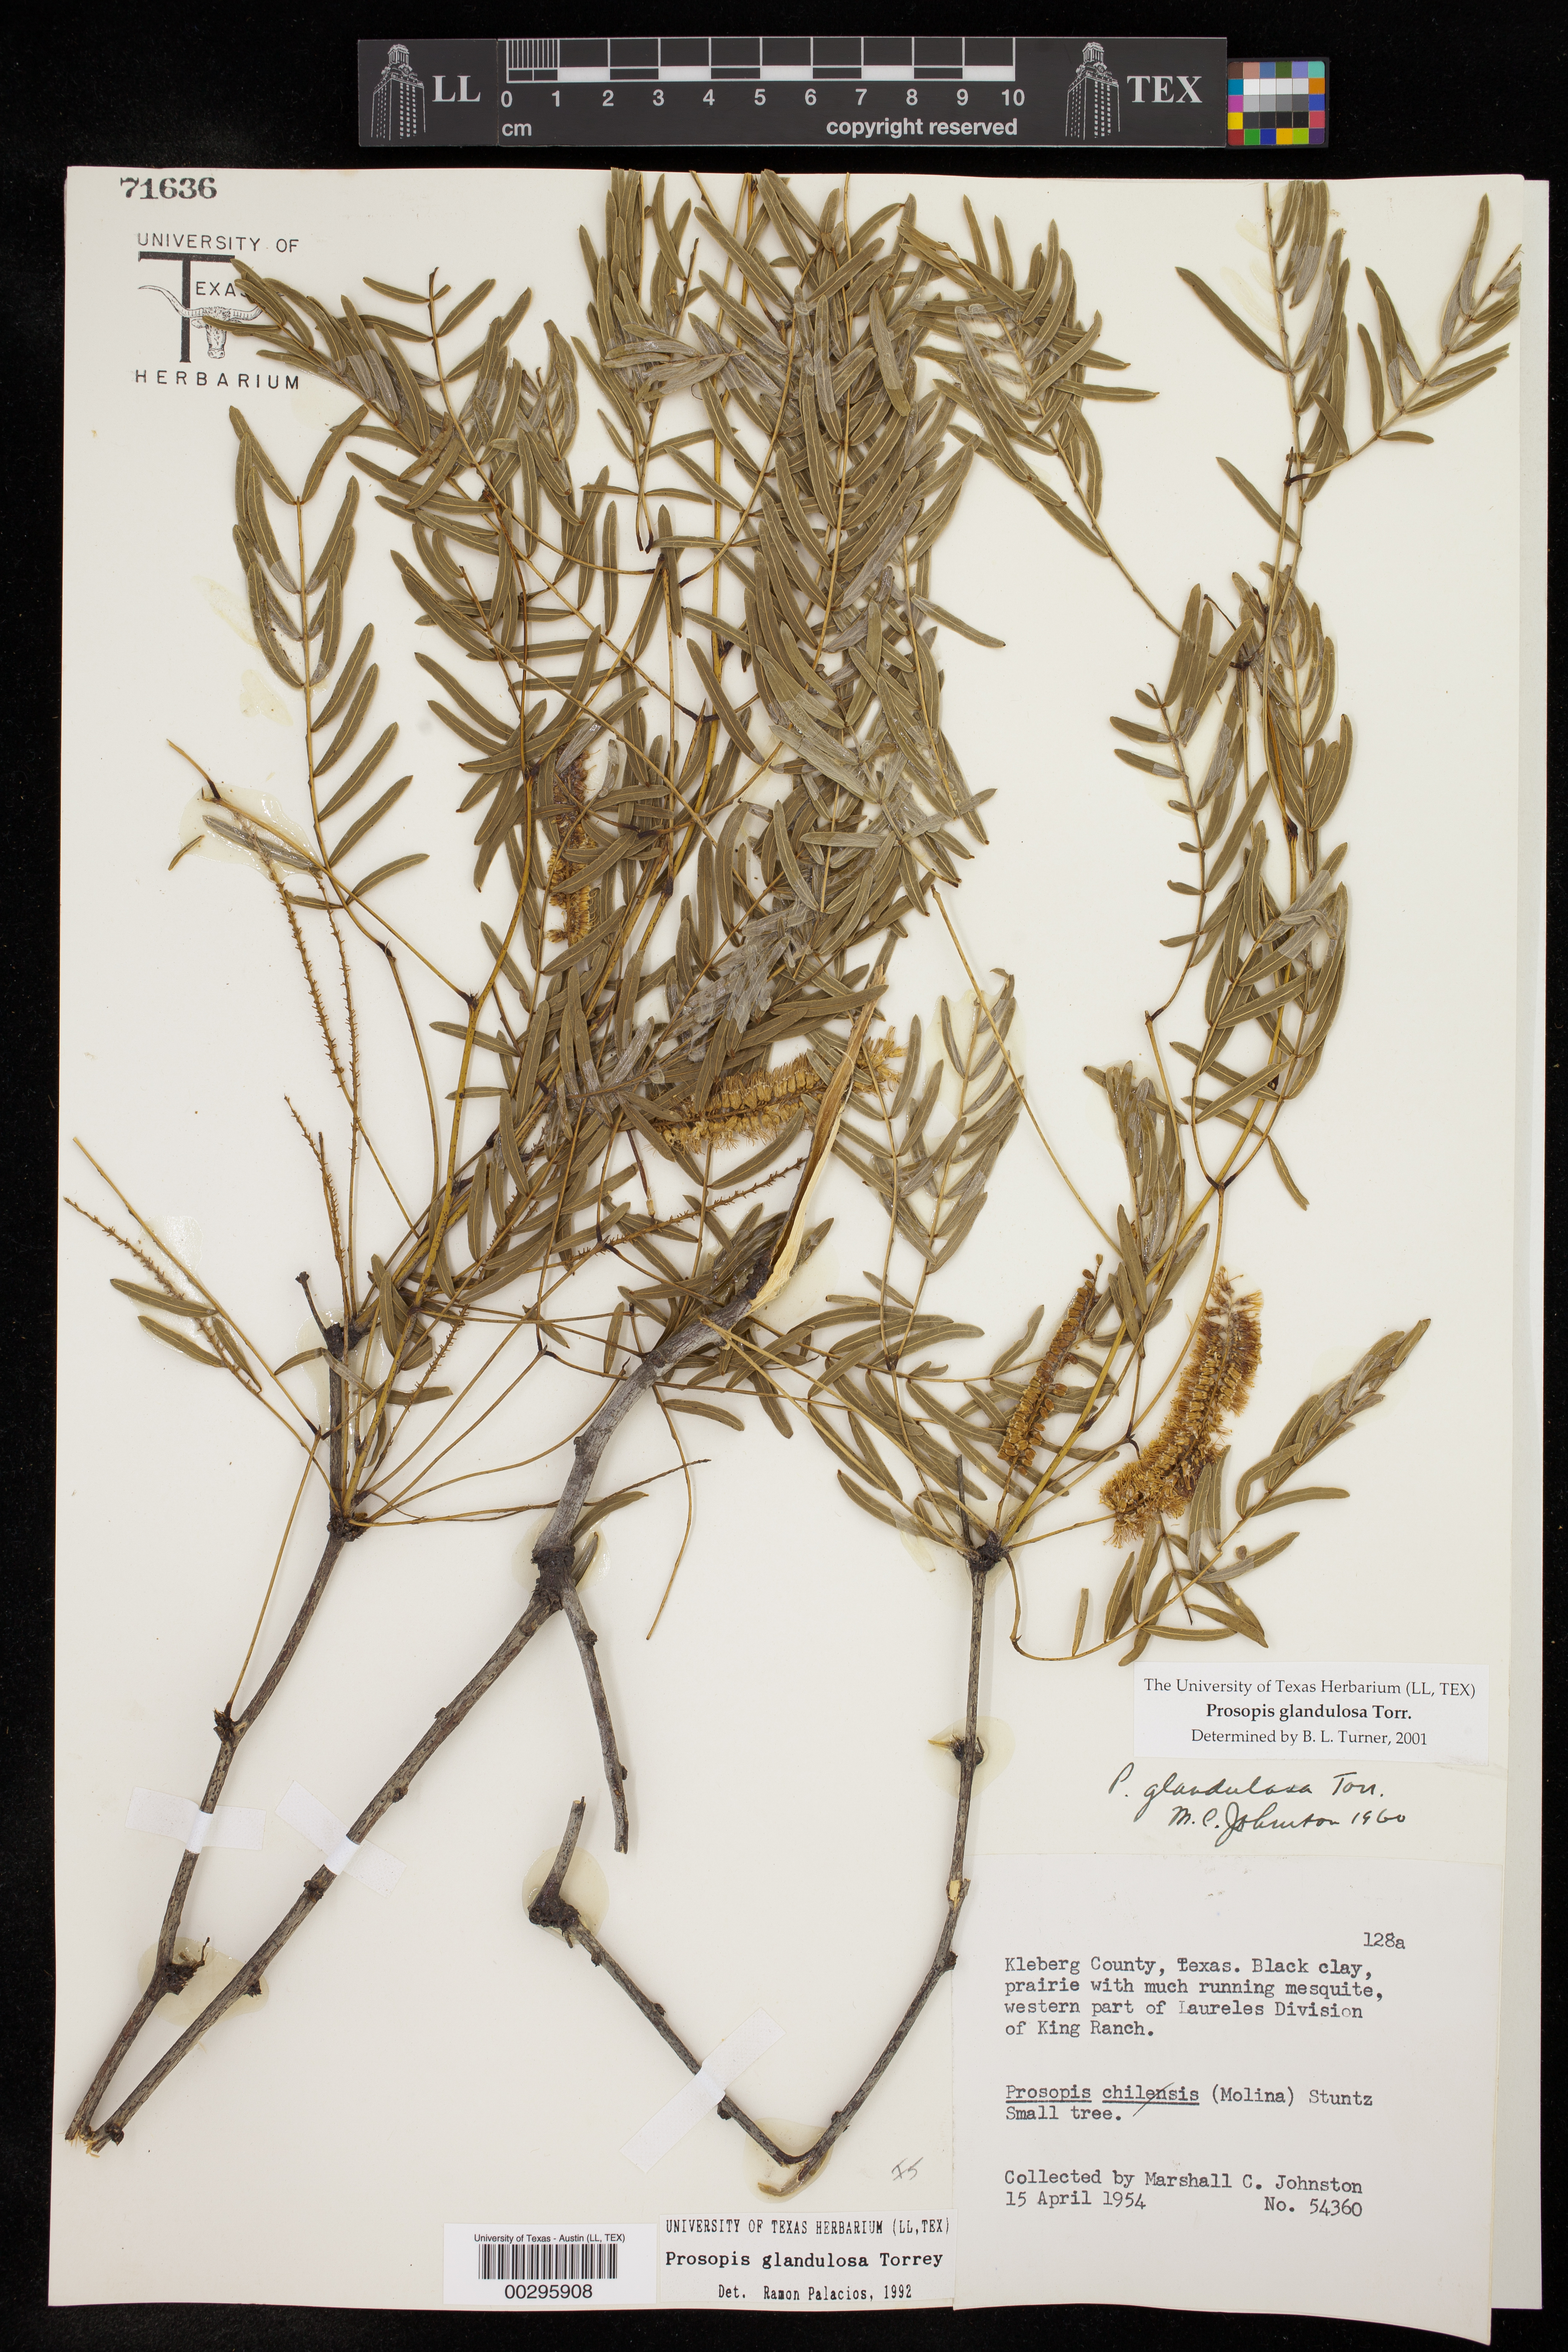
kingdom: Plantae
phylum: Tracheophyta
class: Magnoliopsida
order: Fabales
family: Fabaceae
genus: Prosopis
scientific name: Prosopis glandulosa
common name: Honey mesquite
